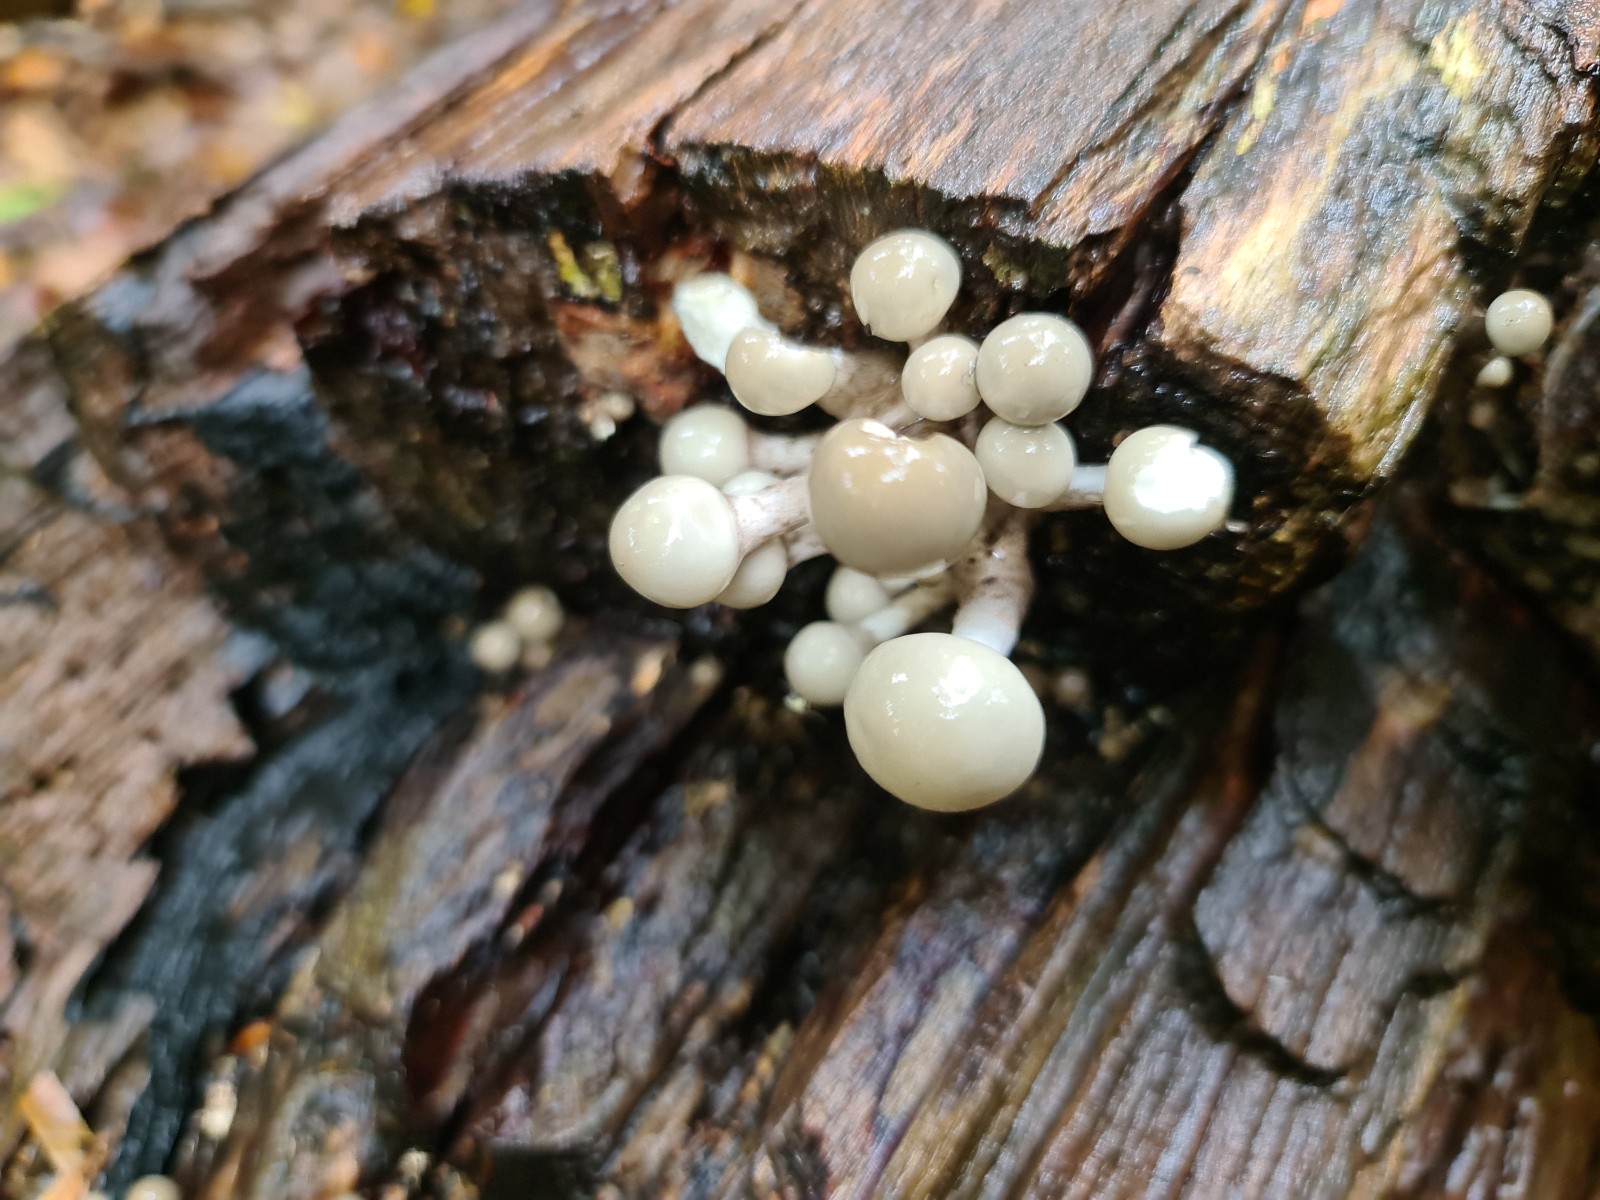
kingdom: Fungi
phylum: Basidiomycota
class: Agaricomycetes
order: Agaricales
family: Physalacriaceae
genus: Mucidula
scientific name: Mucidula mucida
